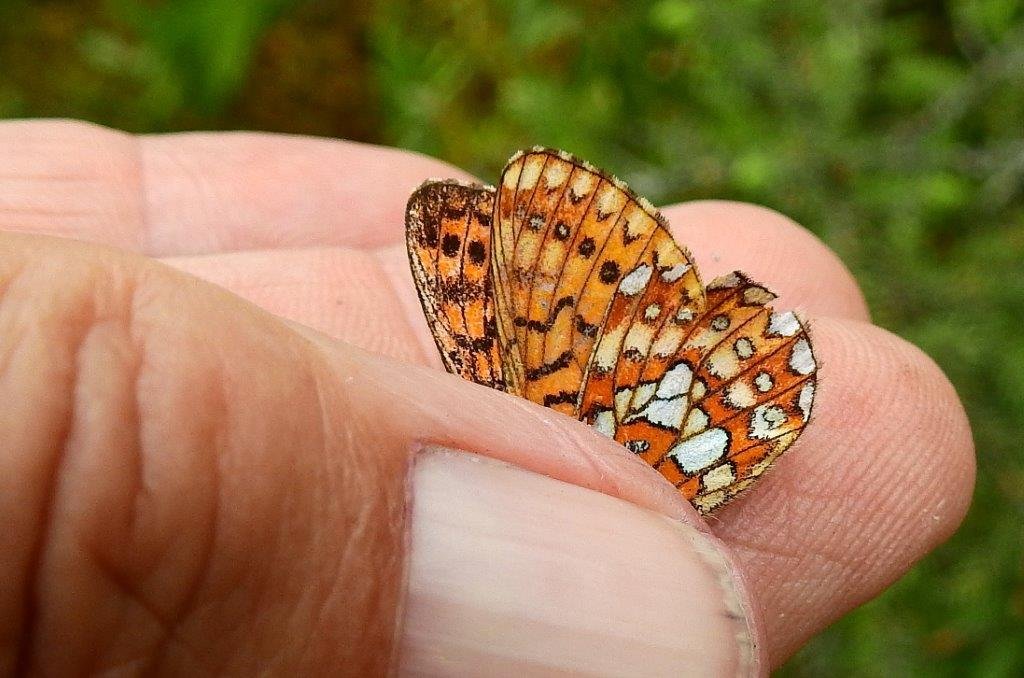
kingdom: Animalia
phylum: Arthropoda
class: Insecta
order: Lepidoptera
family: Nymphalidae
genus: Boloria
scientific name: Boloria eunomia
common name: Bog Fritillary
